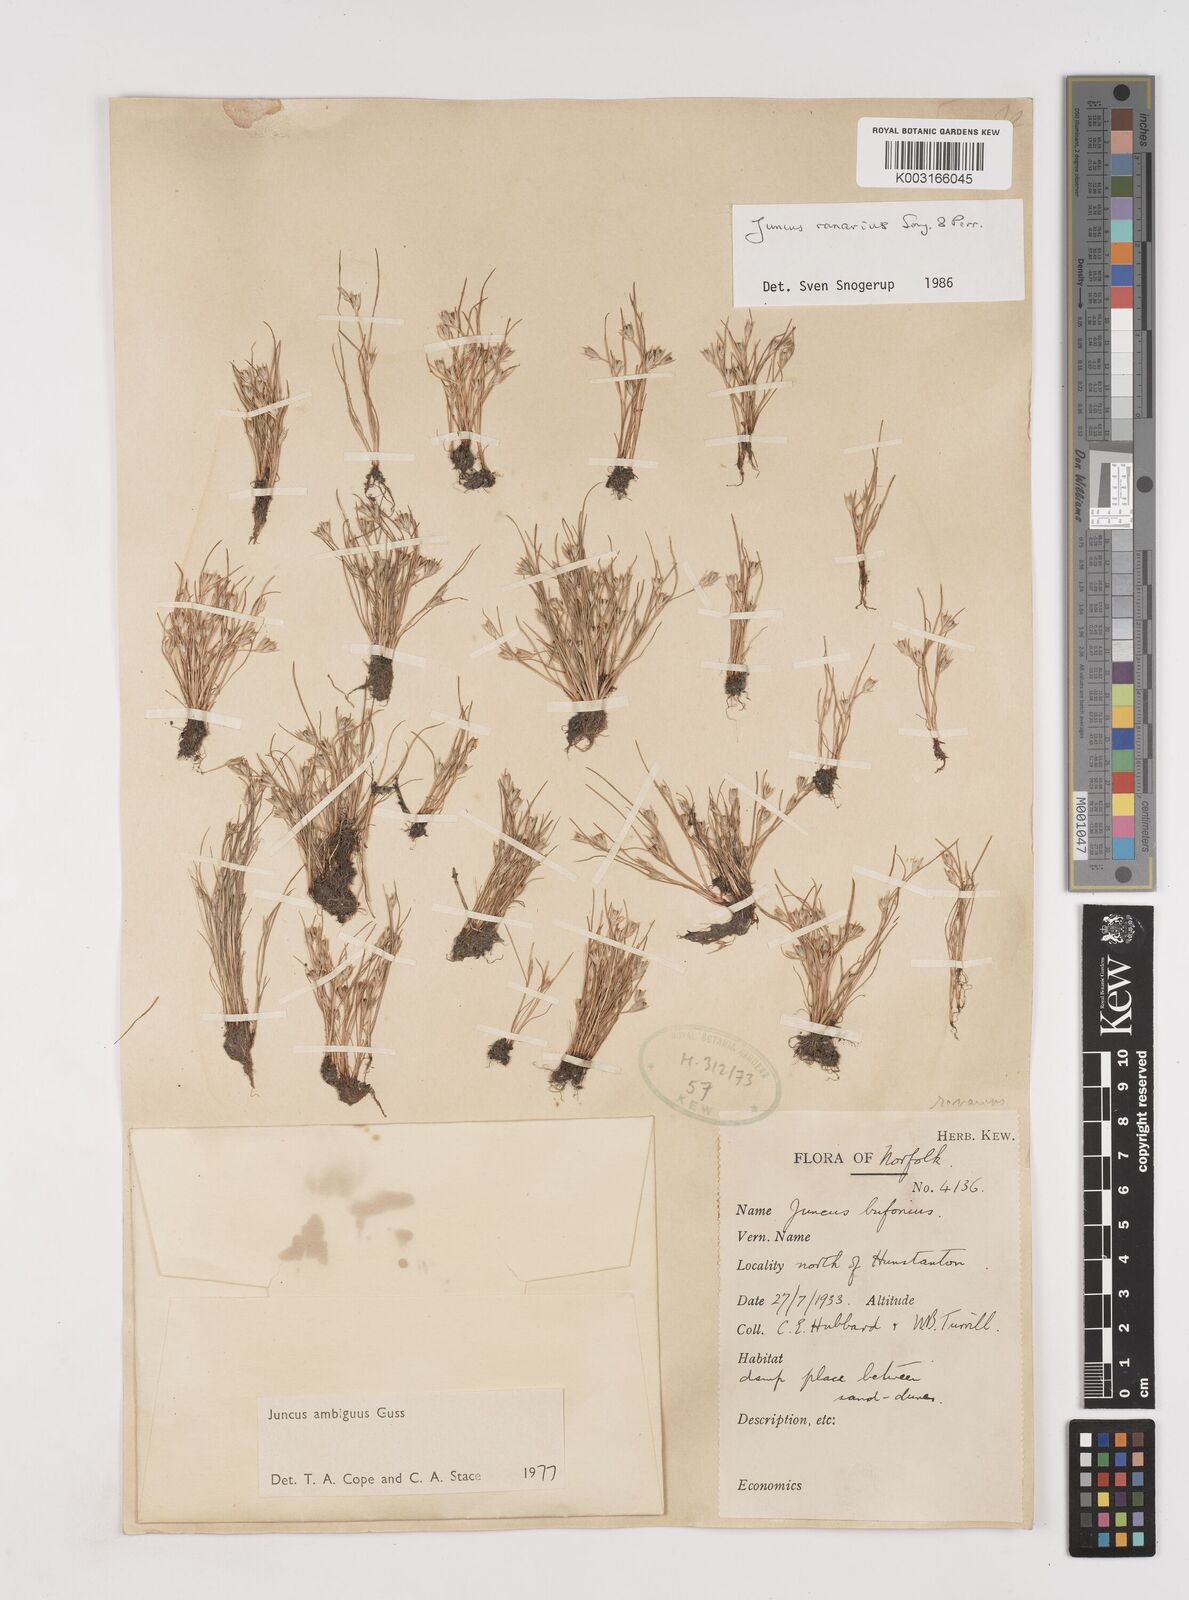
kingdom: Plantae
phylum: Tracheophyta
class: Liliopsida
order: Poales
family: Juncaceae
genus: Juncus
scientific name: Juncus hybridus
